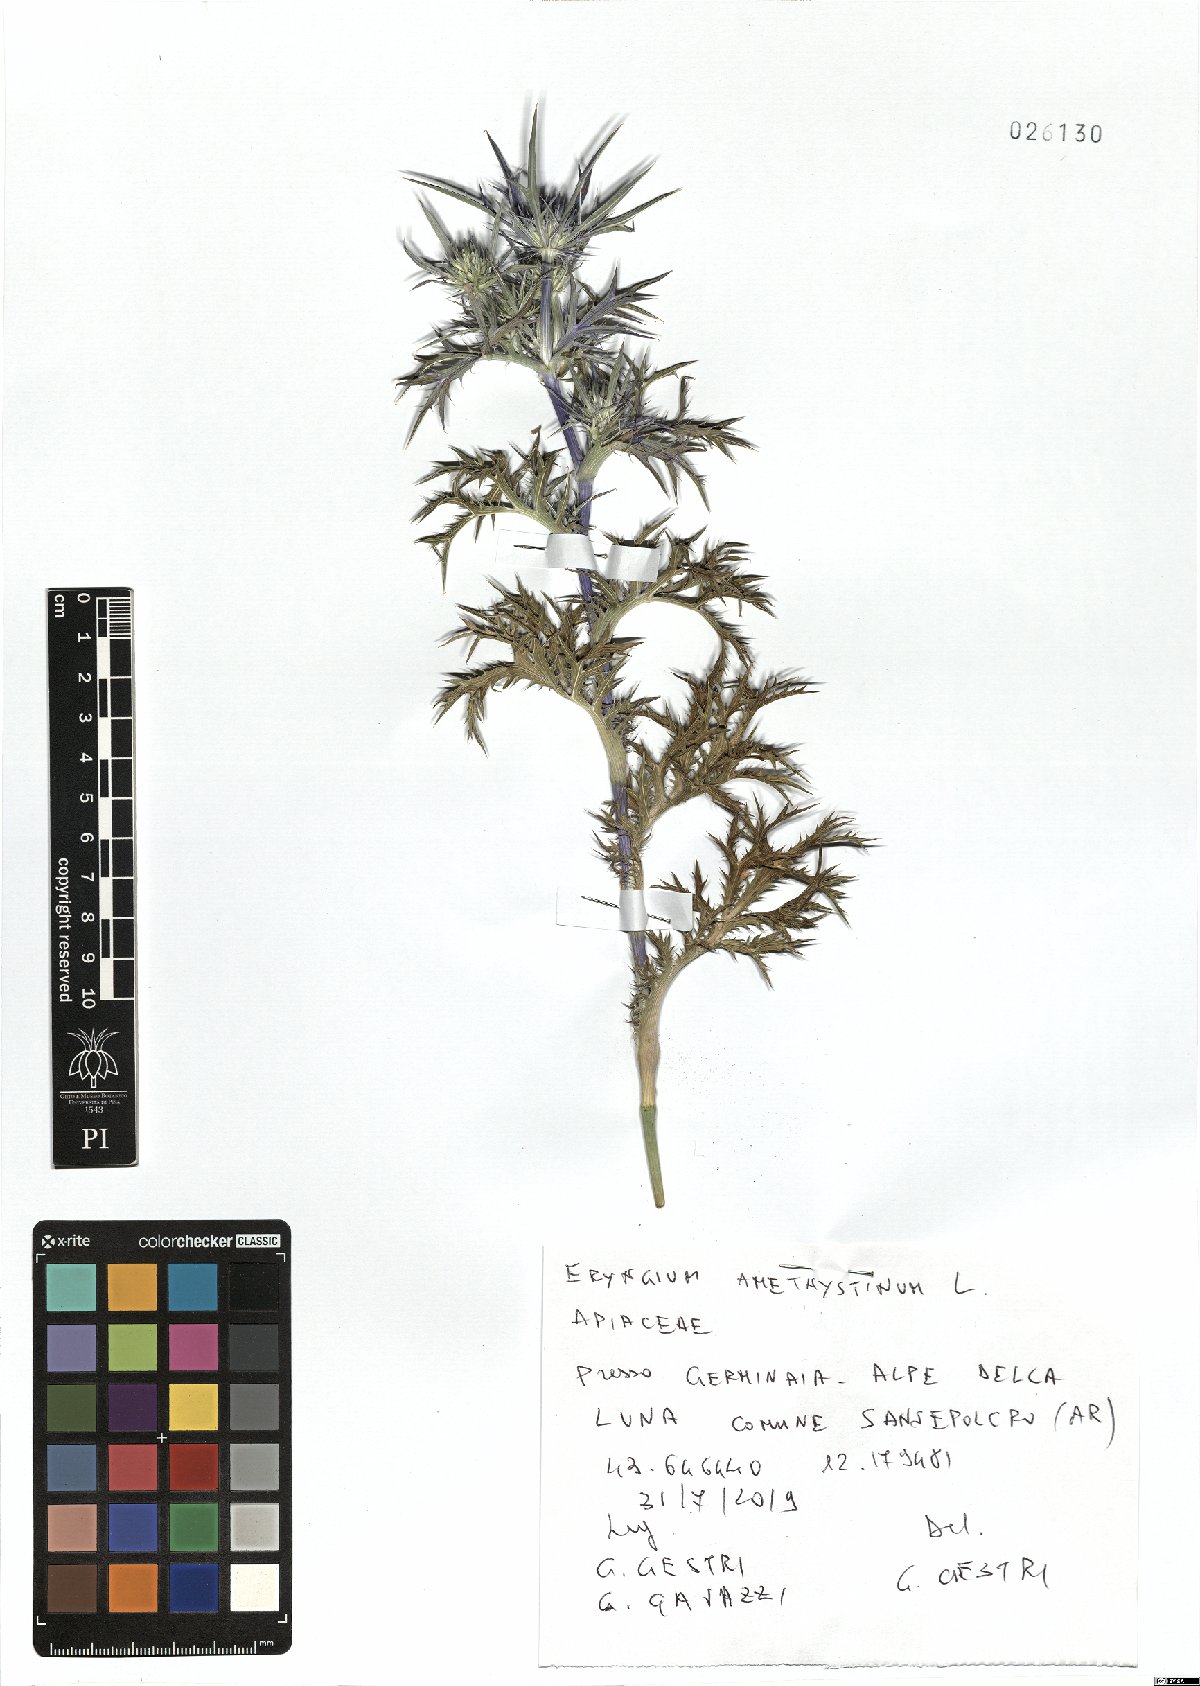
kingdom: Plantae
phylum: Tracheophyta
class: Magnoliopsida
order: Apiales
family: Apiaceae
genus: Eryngium
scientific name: Eryngium amethystinum
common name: Amethyst eryngo
